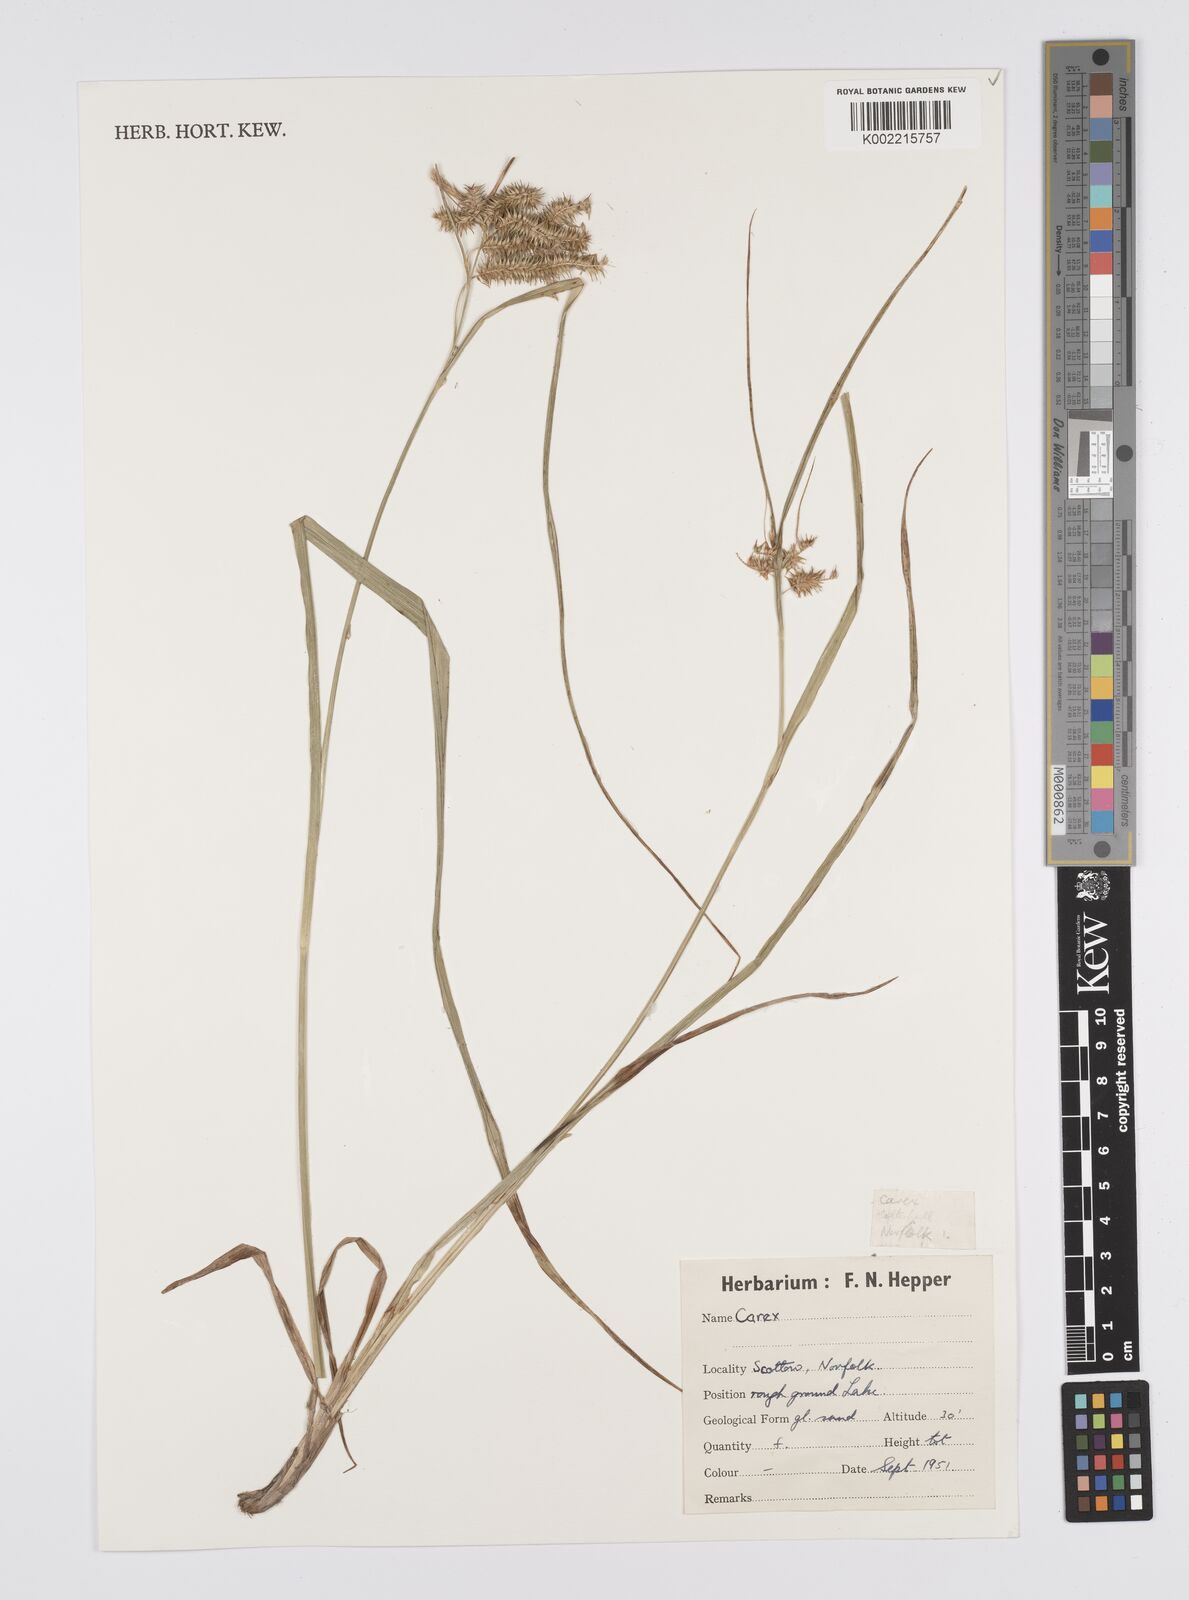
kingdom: Plantae
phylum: Tracheophyta
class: Liliopsida
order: Poales
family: Cyperaceae
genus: Carex
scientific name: Carex
